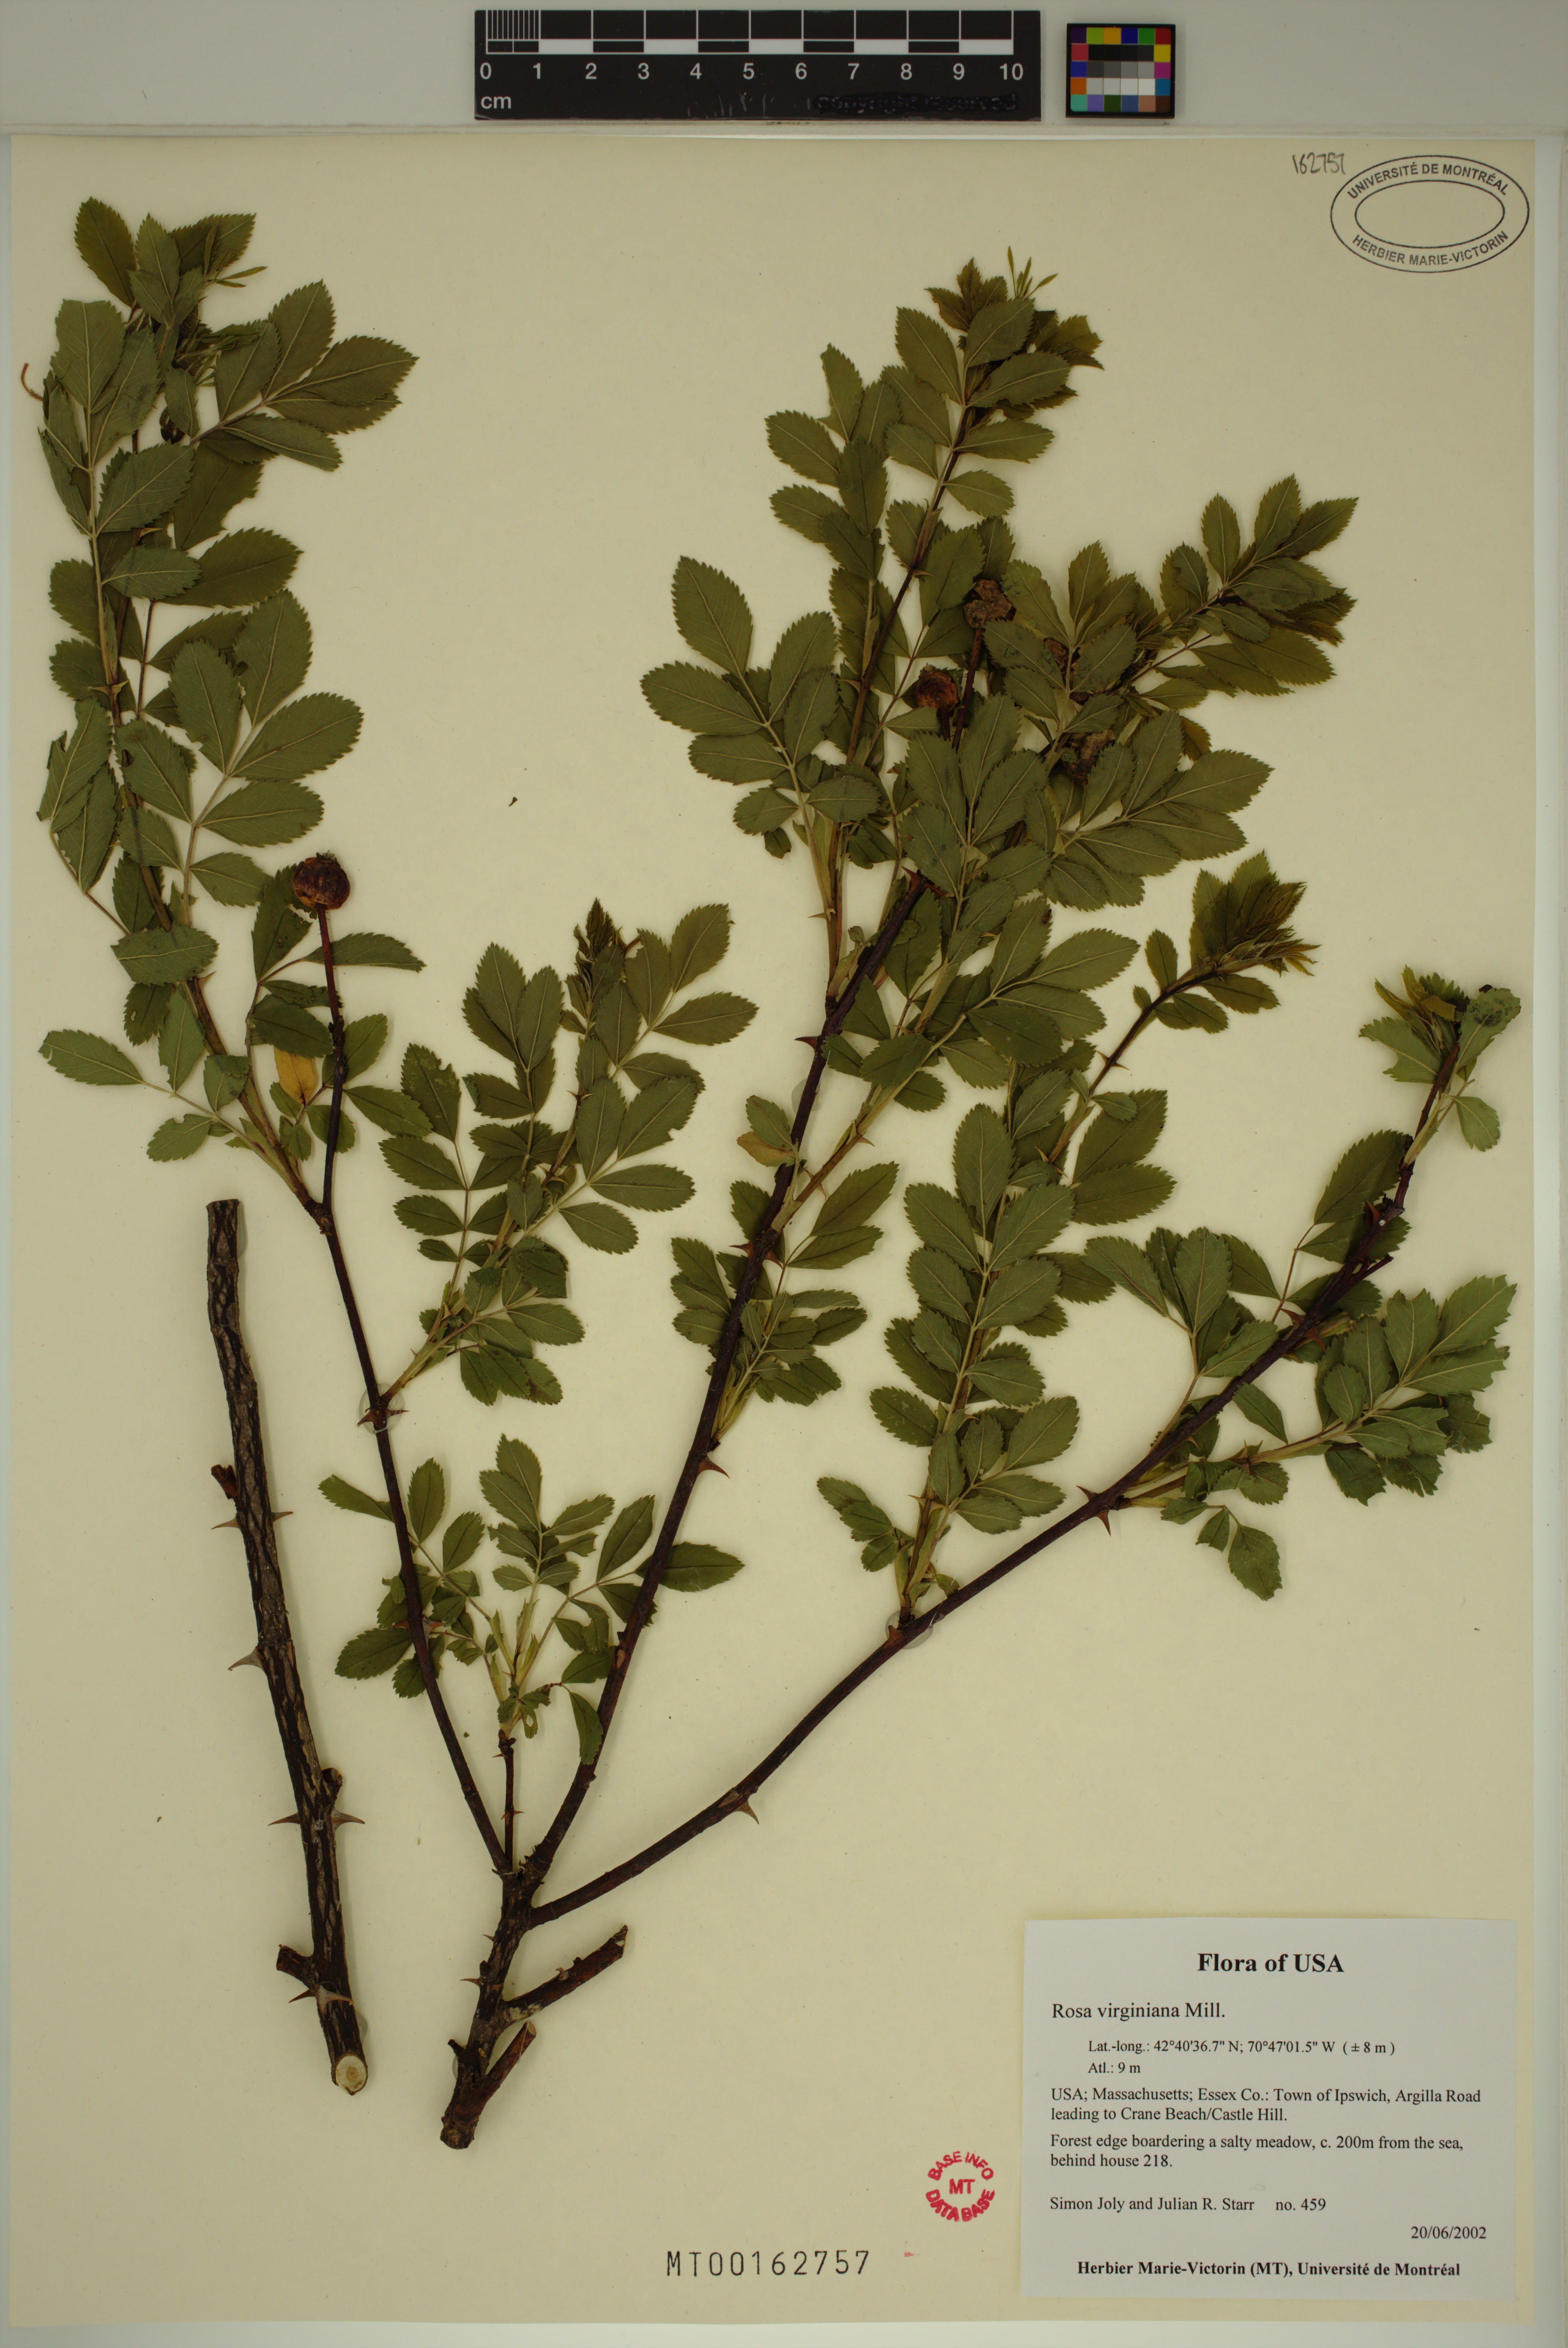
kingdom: Plantae
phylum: Tracheophyta
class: Magnoliopsida
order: Rosales
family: Rosaceae
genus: Rosa
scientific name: Rosa carolina
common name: Pasture rose
